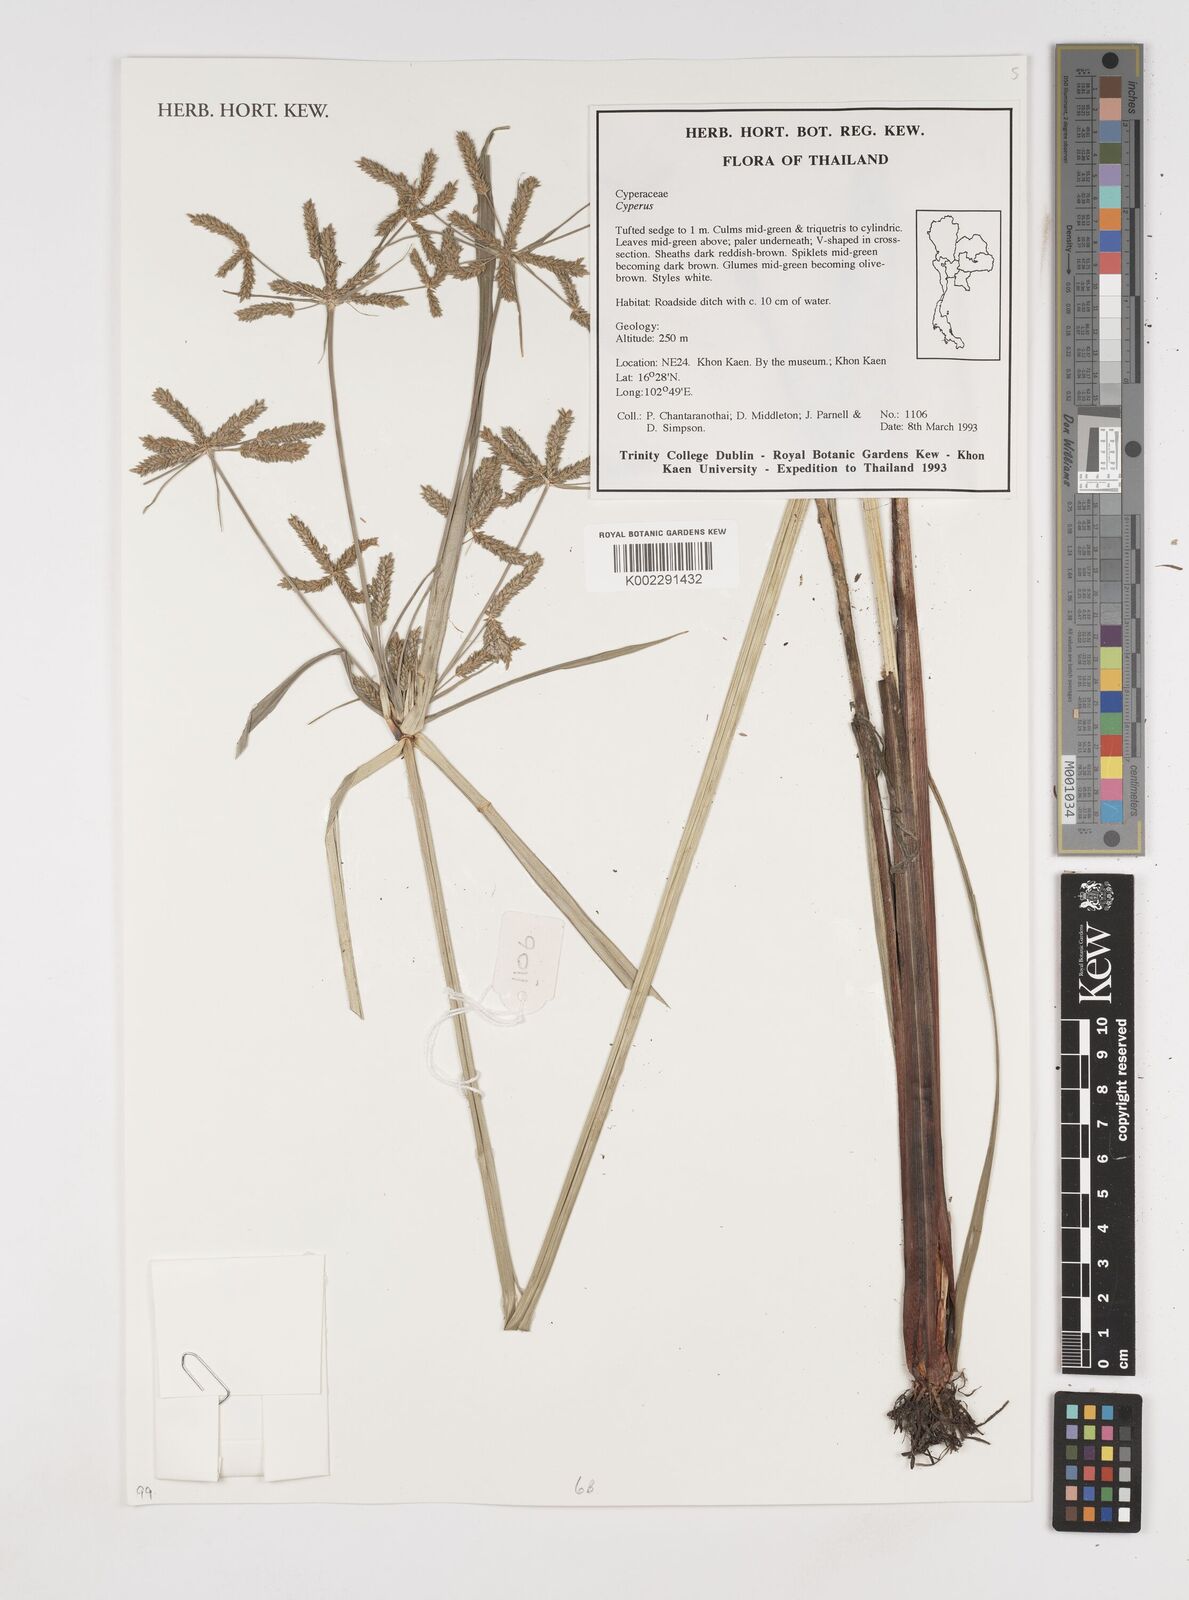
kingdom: Plantae
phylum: Tracheophyta
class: Liliopsida
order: Poales
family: Cyperaceae
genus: Cyperus
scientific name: Cyperus
